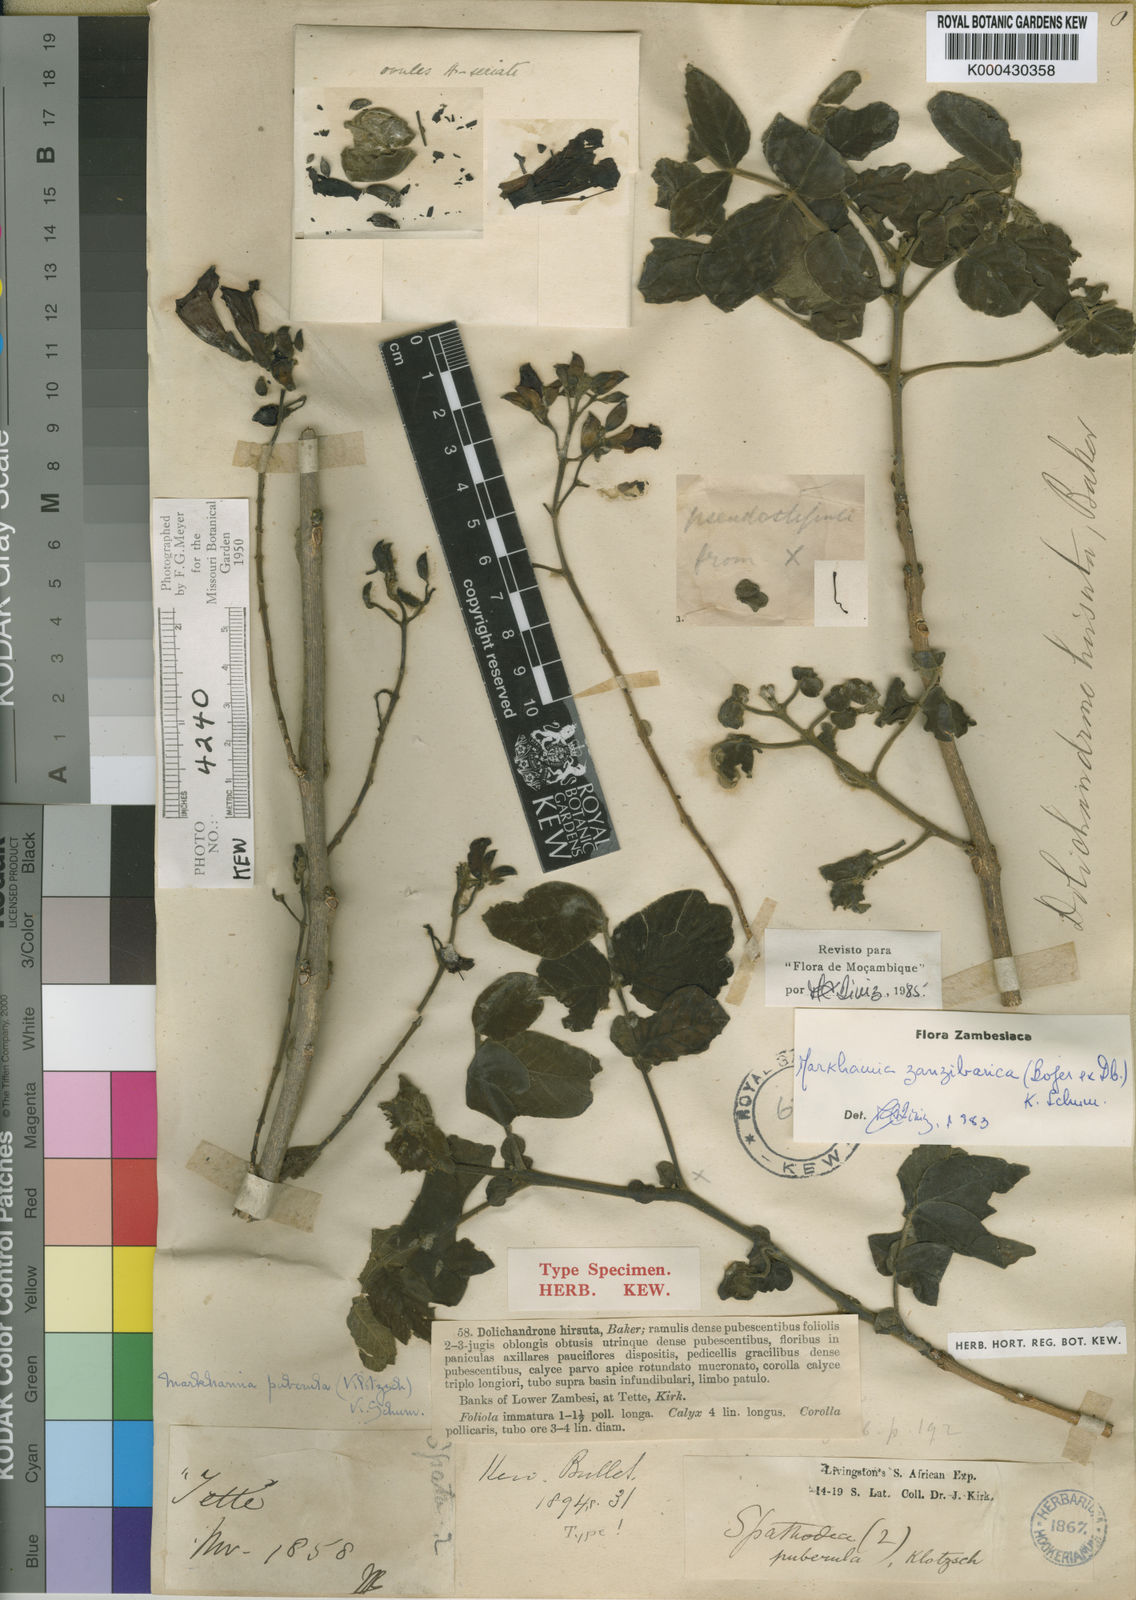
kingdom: Plantae
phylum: Tracheophyta
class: Magnoliopsida
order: Lamiales
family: Bignoniaceae
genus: Markhamia
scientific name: Markhamia zanzibarica
